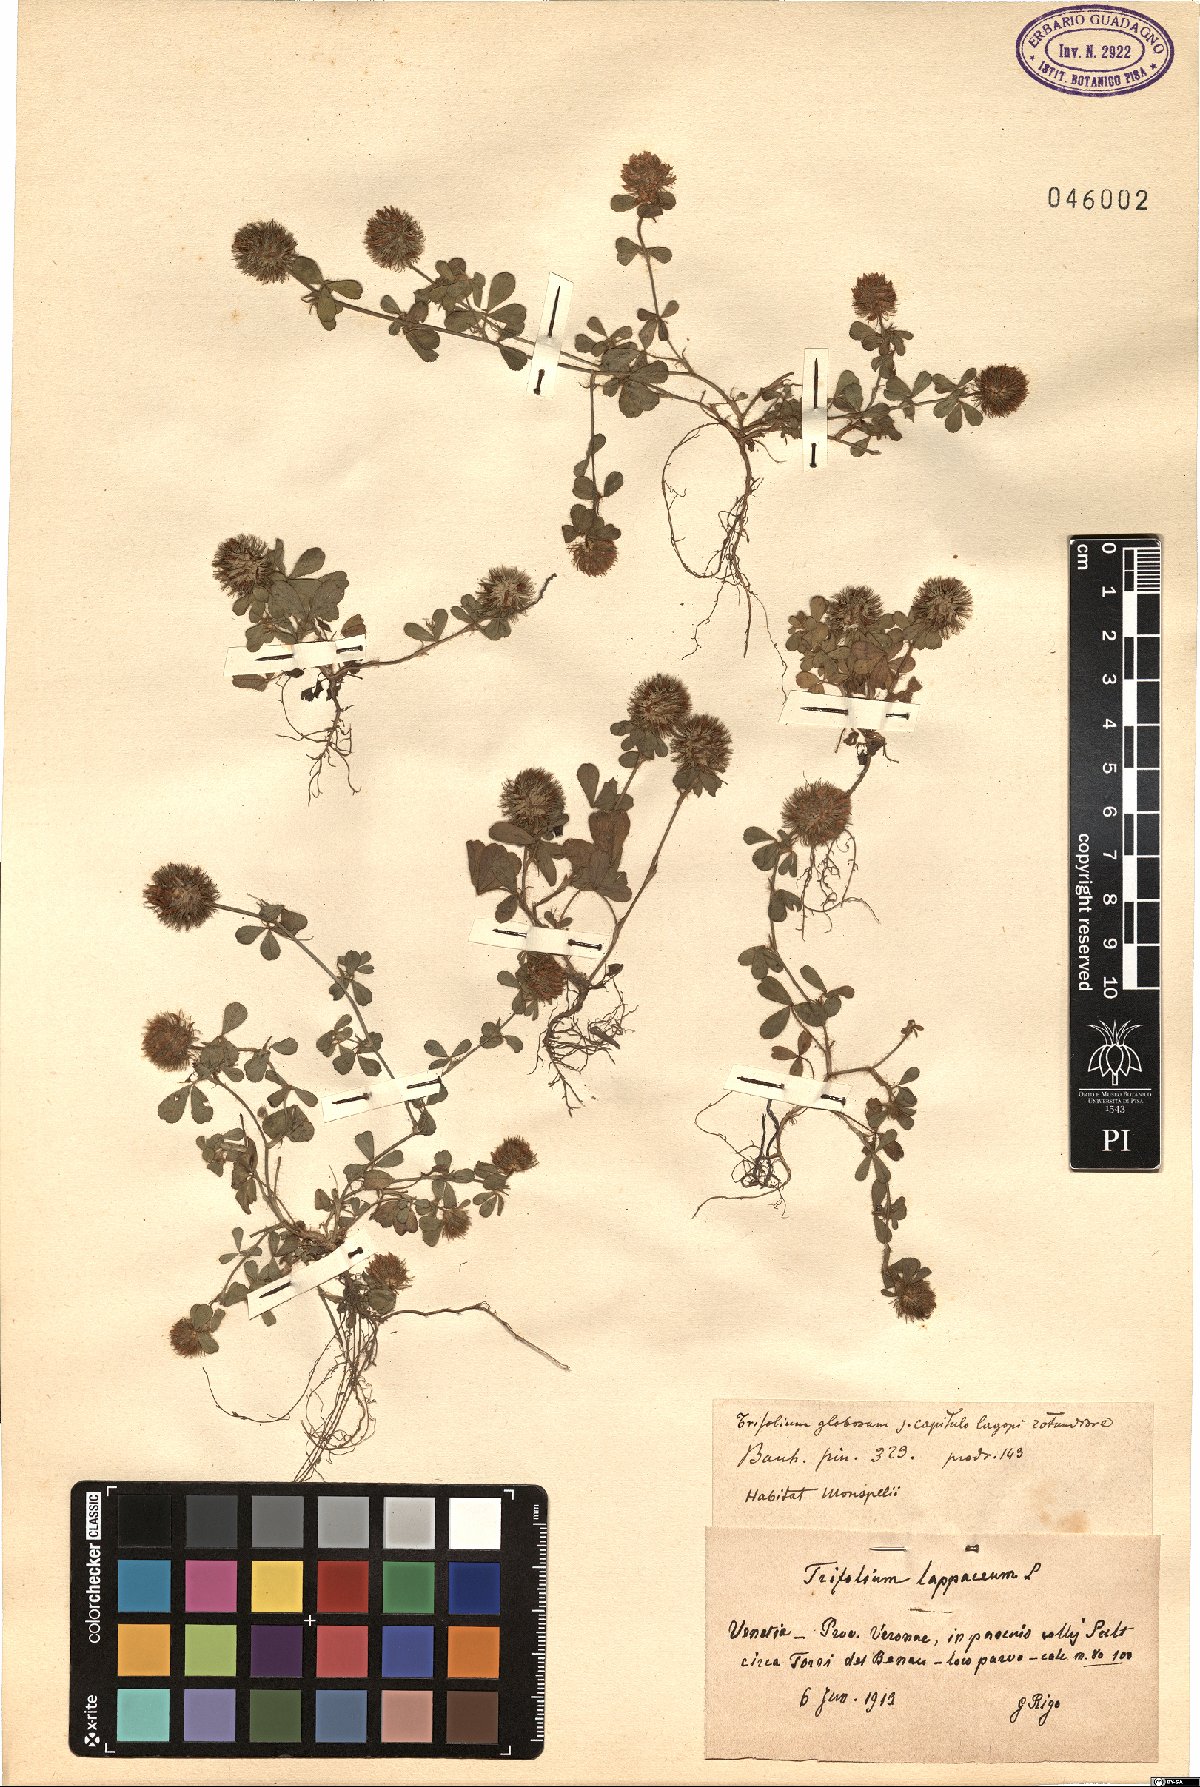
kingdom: Plantae
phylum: Tracheophyta
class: Magnoliopsida
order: Fabales
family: Fabaceae
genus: Trifolium
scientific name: Trifolium lappaceum
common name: Bur clover
